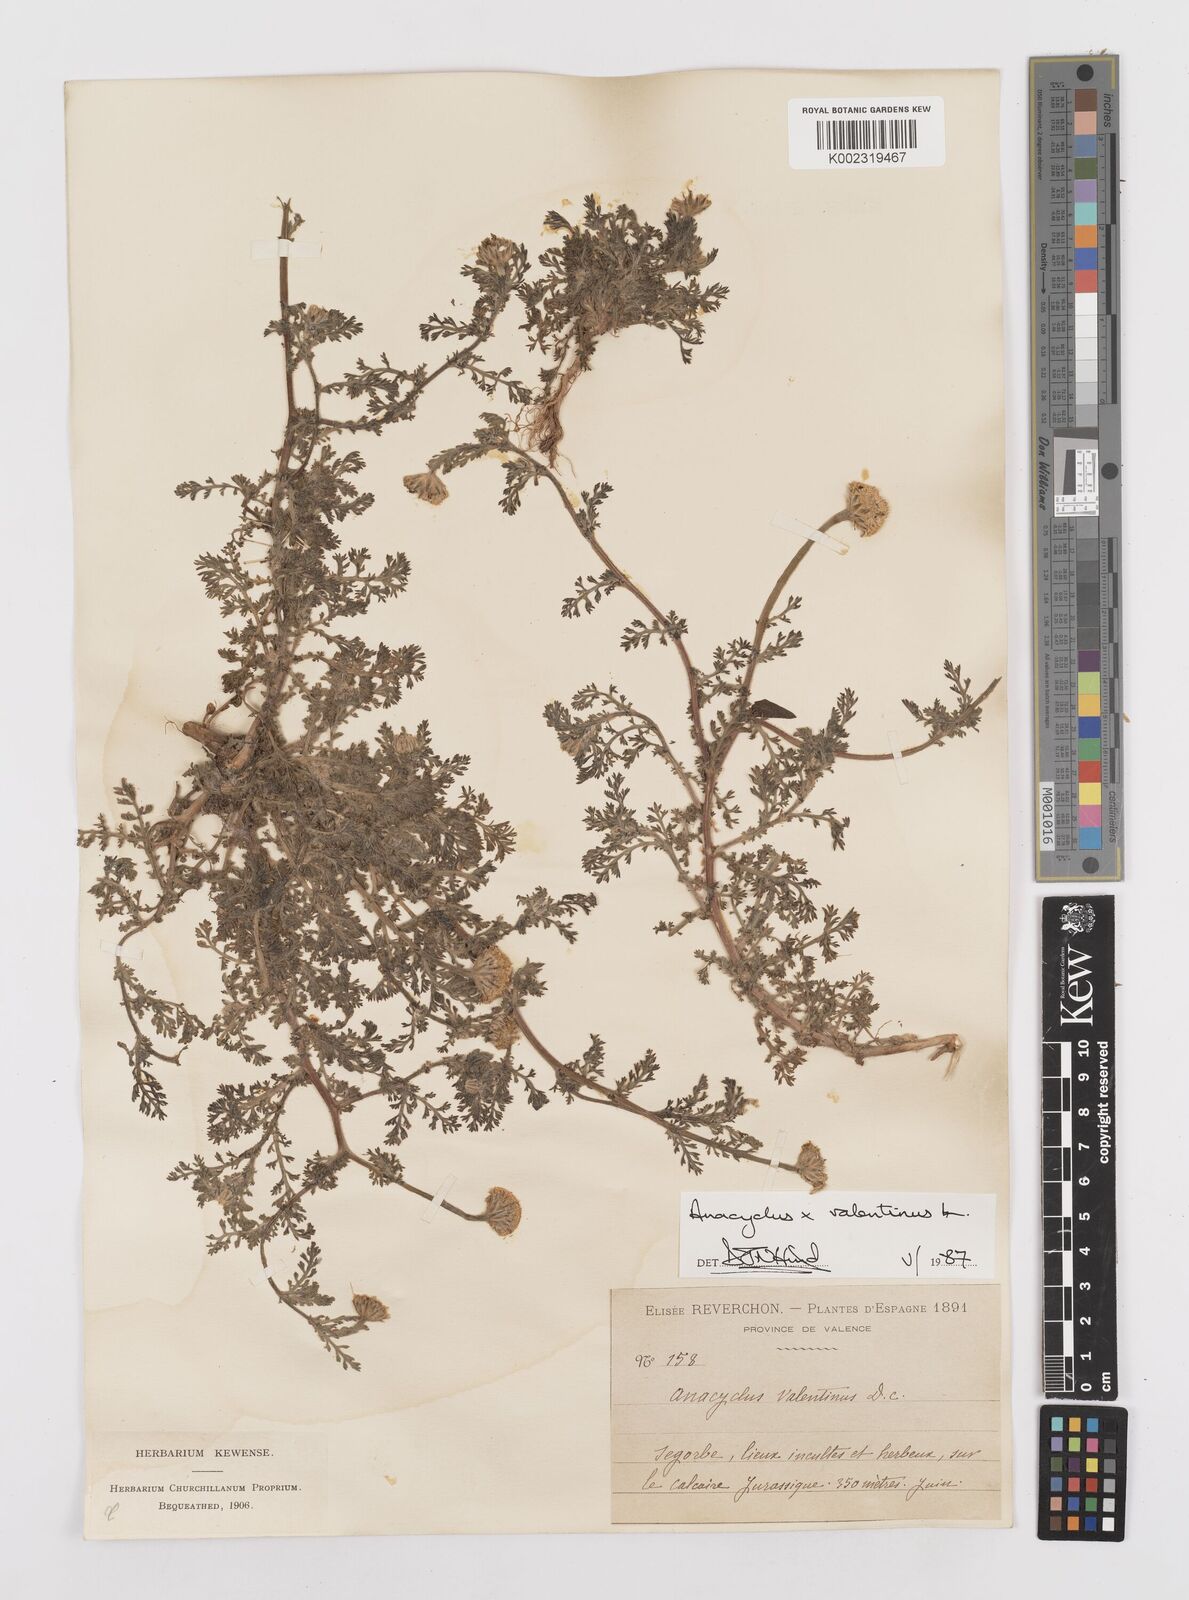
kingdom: Plantae
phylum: Tracheophyta
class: Magnoliopsida
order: Asterales
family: Asteraceae
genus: Anacyclus
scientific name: Anacyclus valentinus
